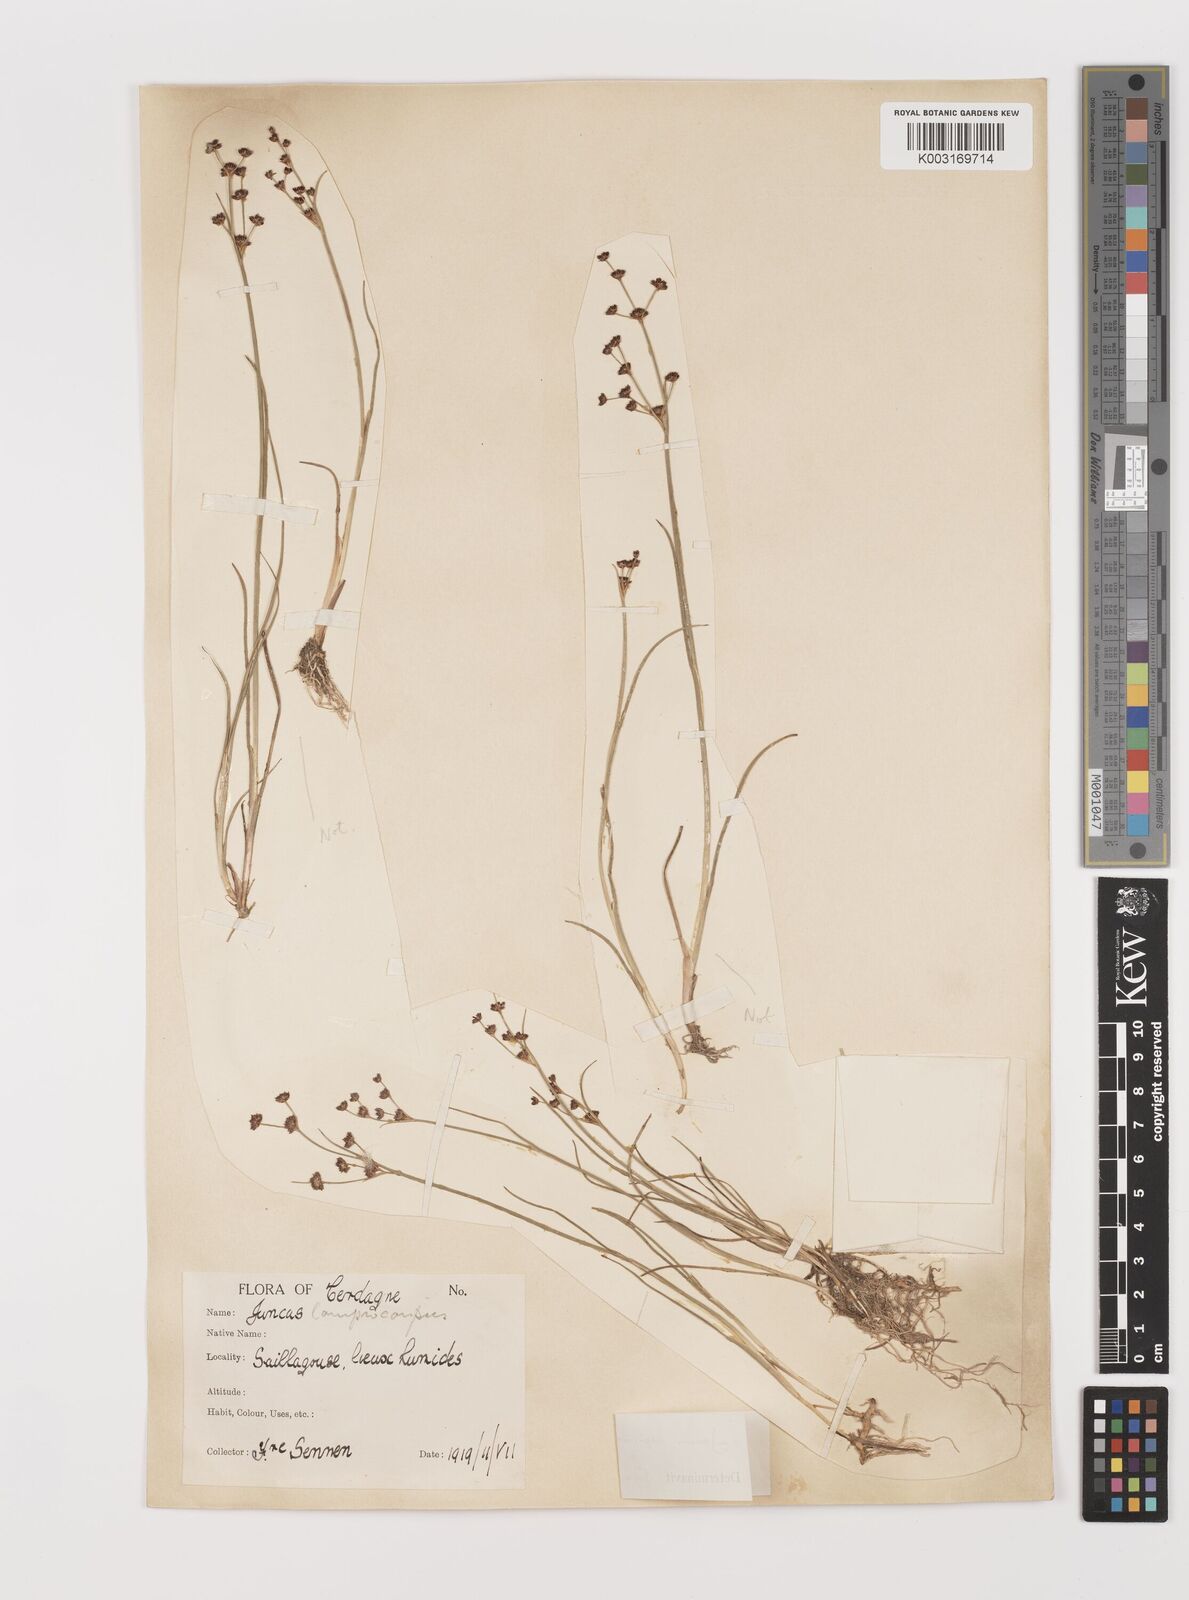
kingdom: Plantae
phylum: Tracheophyta
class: Liliopsida
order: Poales
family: Juncaceae
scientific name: Juncaceae
